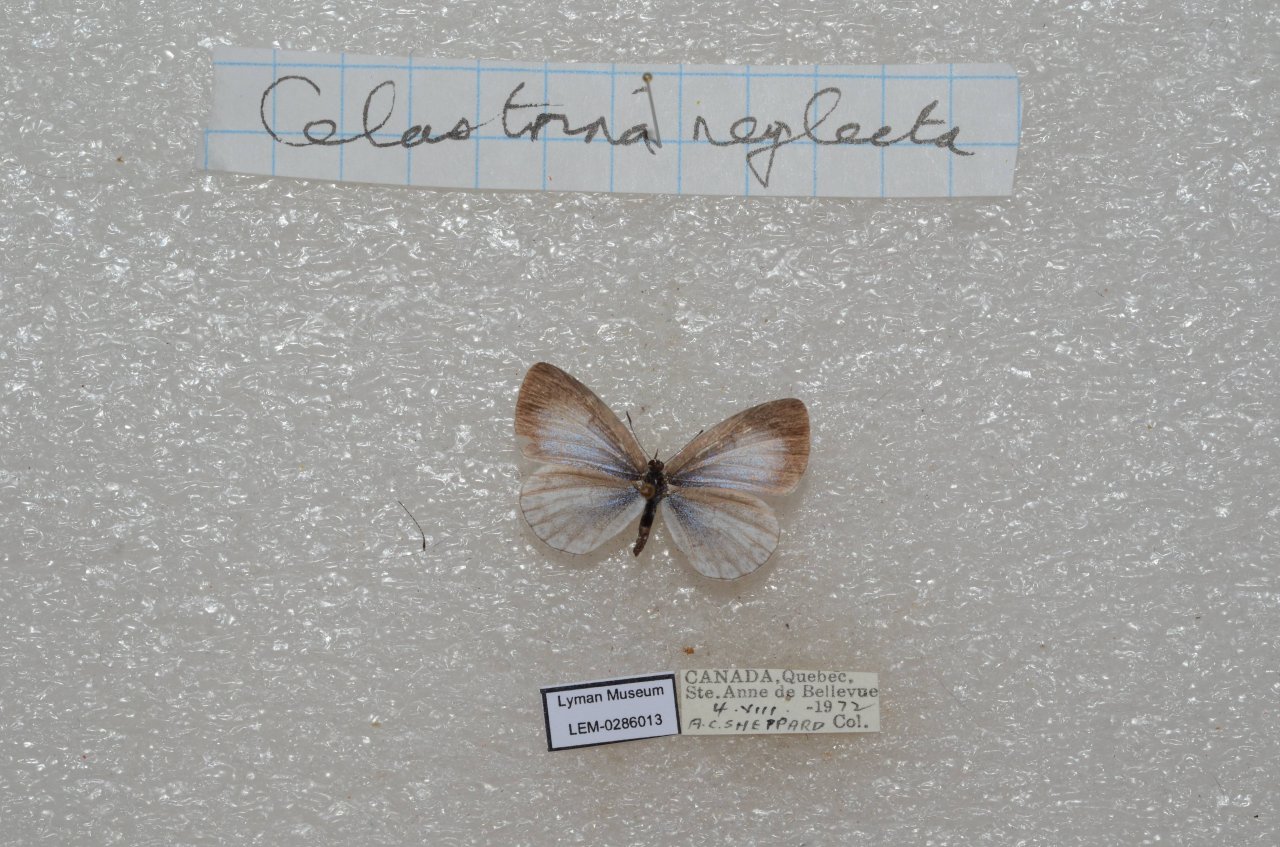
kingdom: Animalia
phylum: Arthropoda
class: Insecta
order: Lepidoptera
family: Lycaenidae
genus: Celastrina
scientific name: Celastrina lucia
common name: Northern Spring Azure
